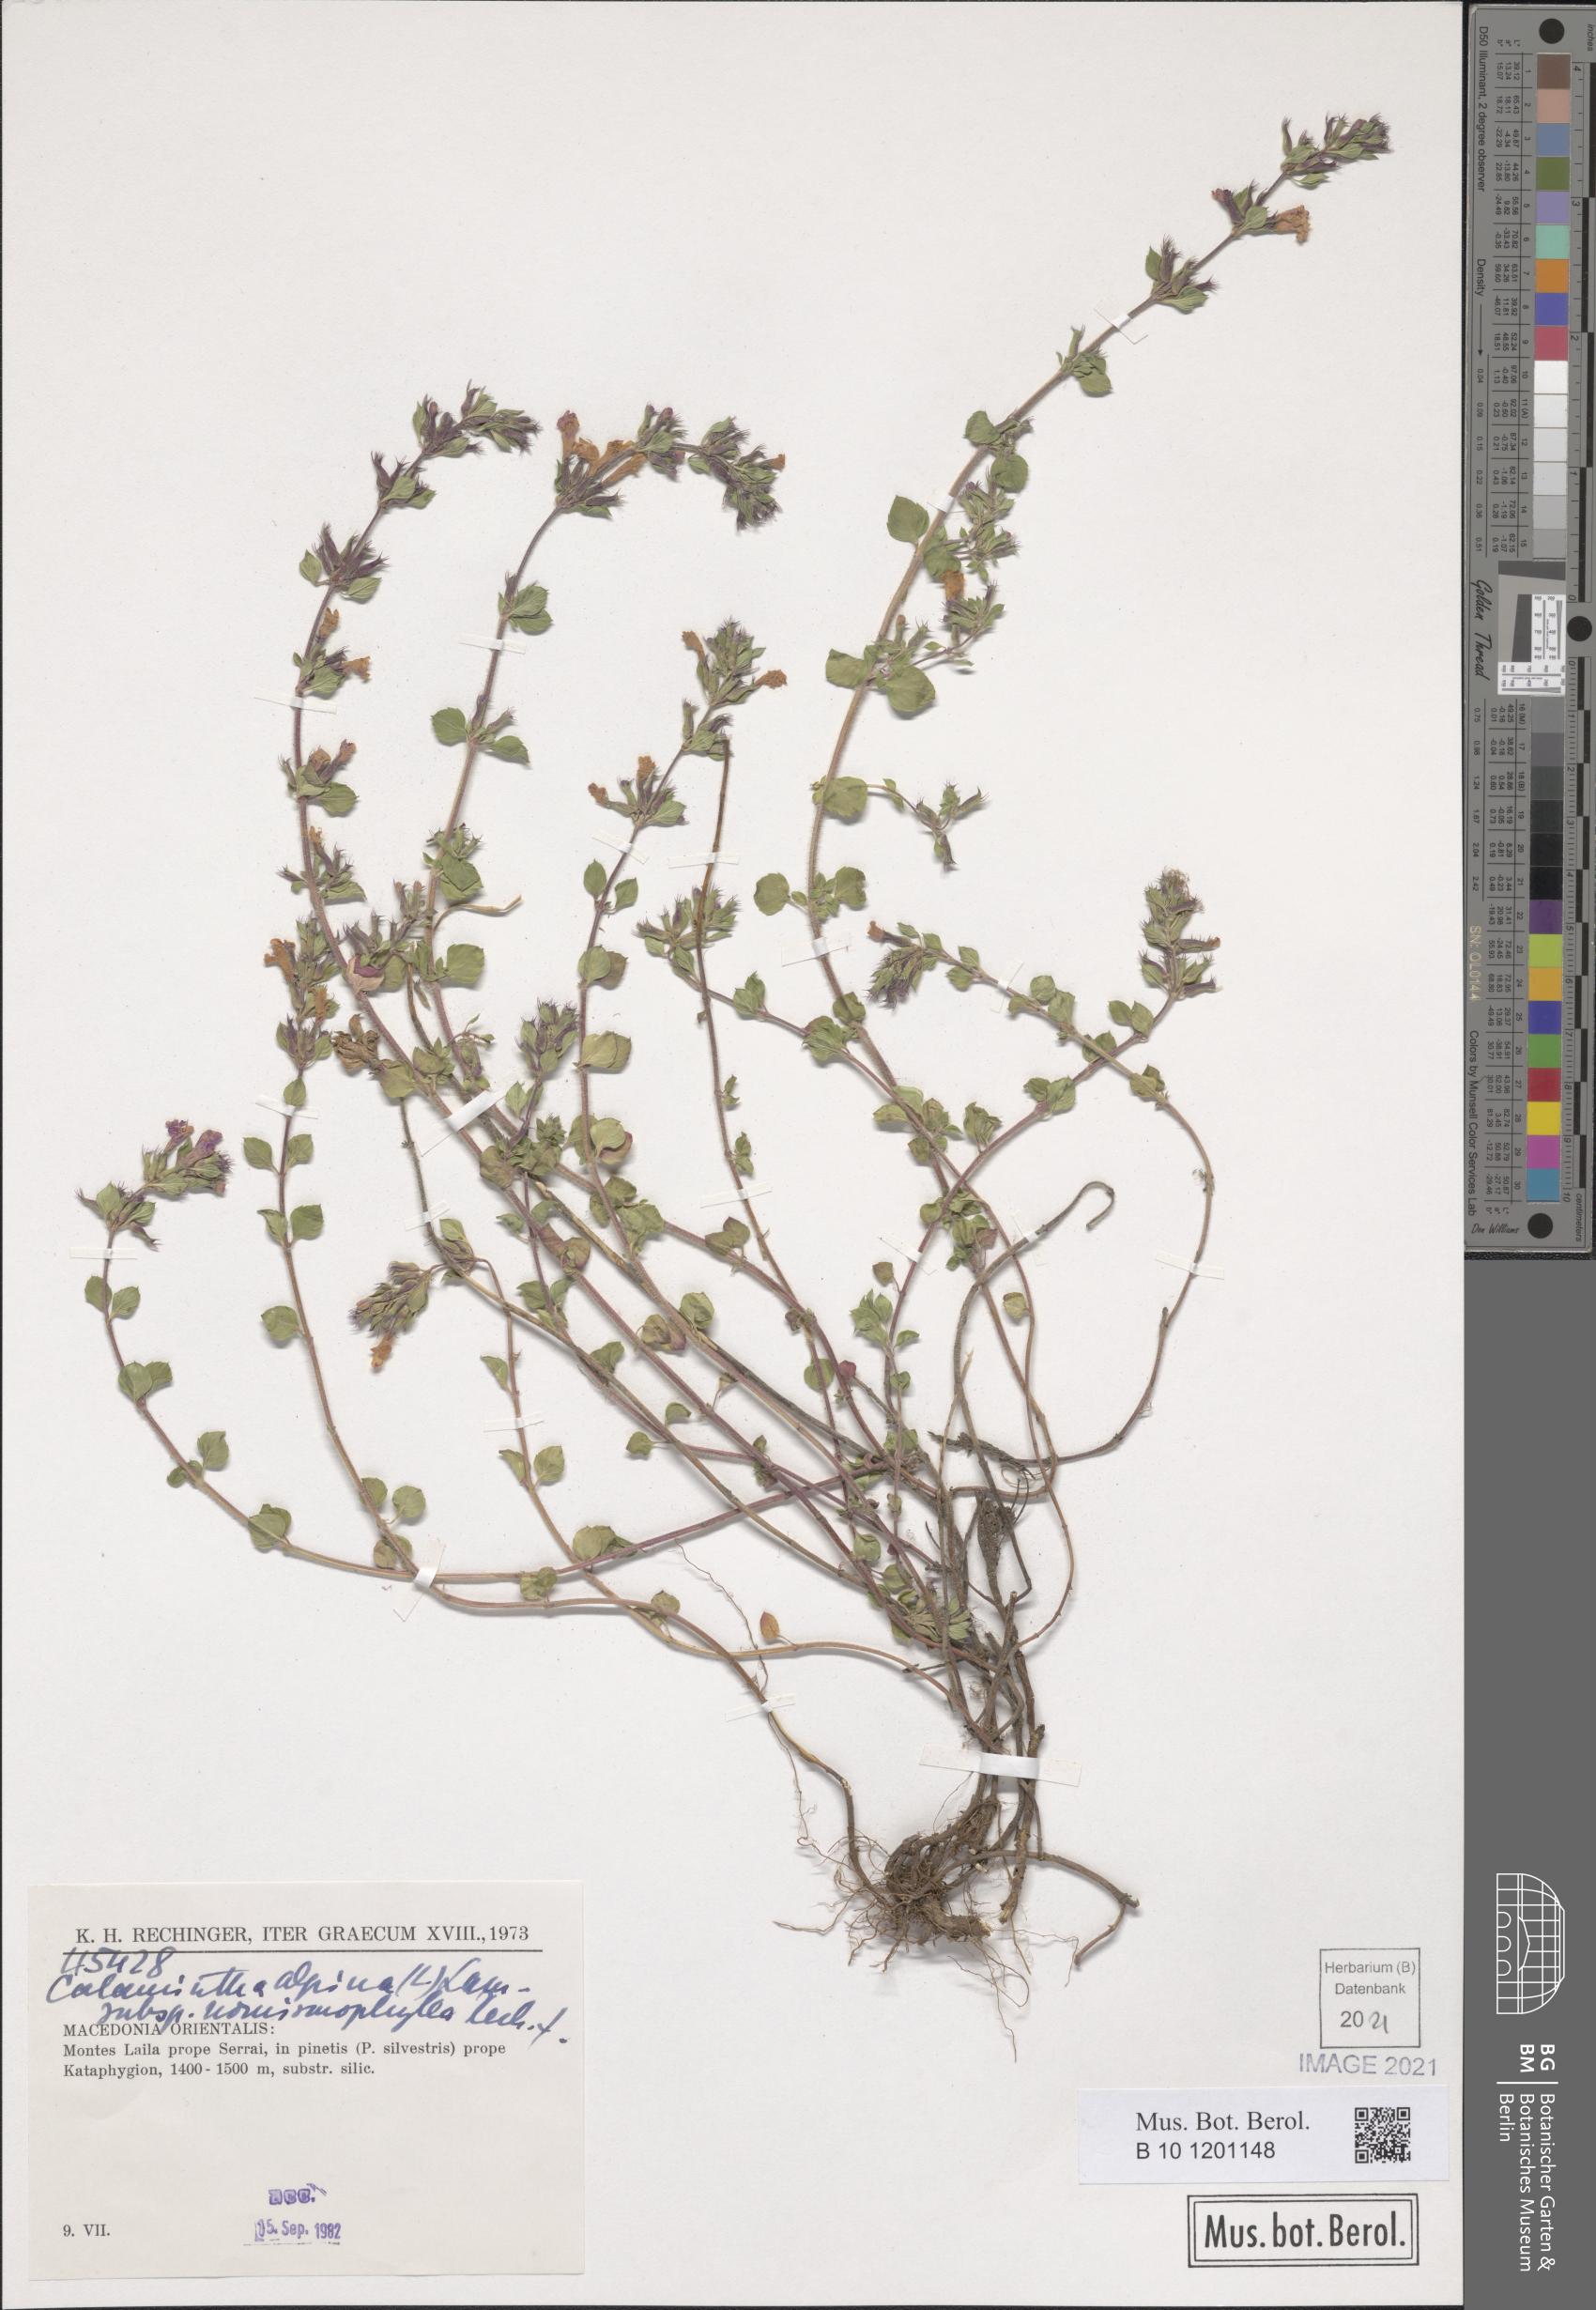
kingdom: Plantae
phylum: Tracheophyta
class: Magnoliopsida
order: Lamiales
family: Lamiaceae
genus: Clinopodium
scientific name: Clinopodium alpinum
